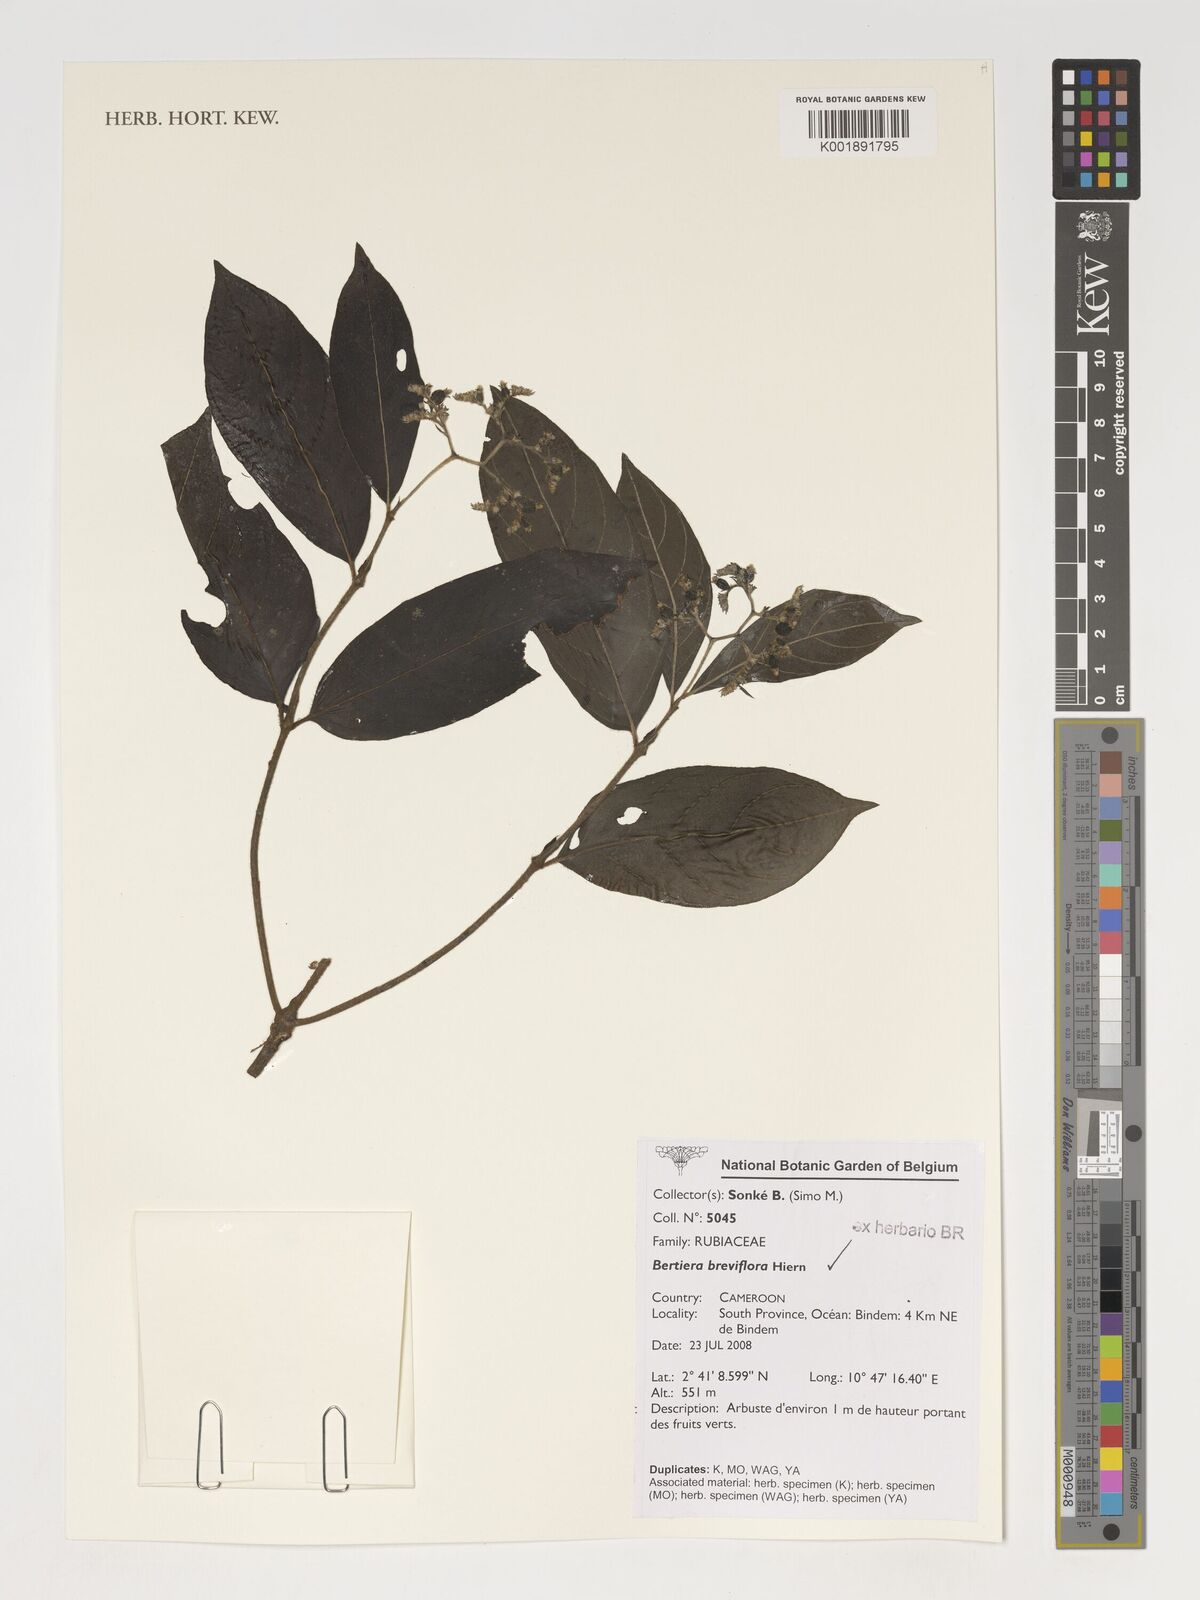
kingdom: Plantae
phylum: Tracheophyta
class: Magnoliopsida
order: Gentianales
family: Rubiaceae
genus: Bertiera
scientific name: Bertiera breviflora
